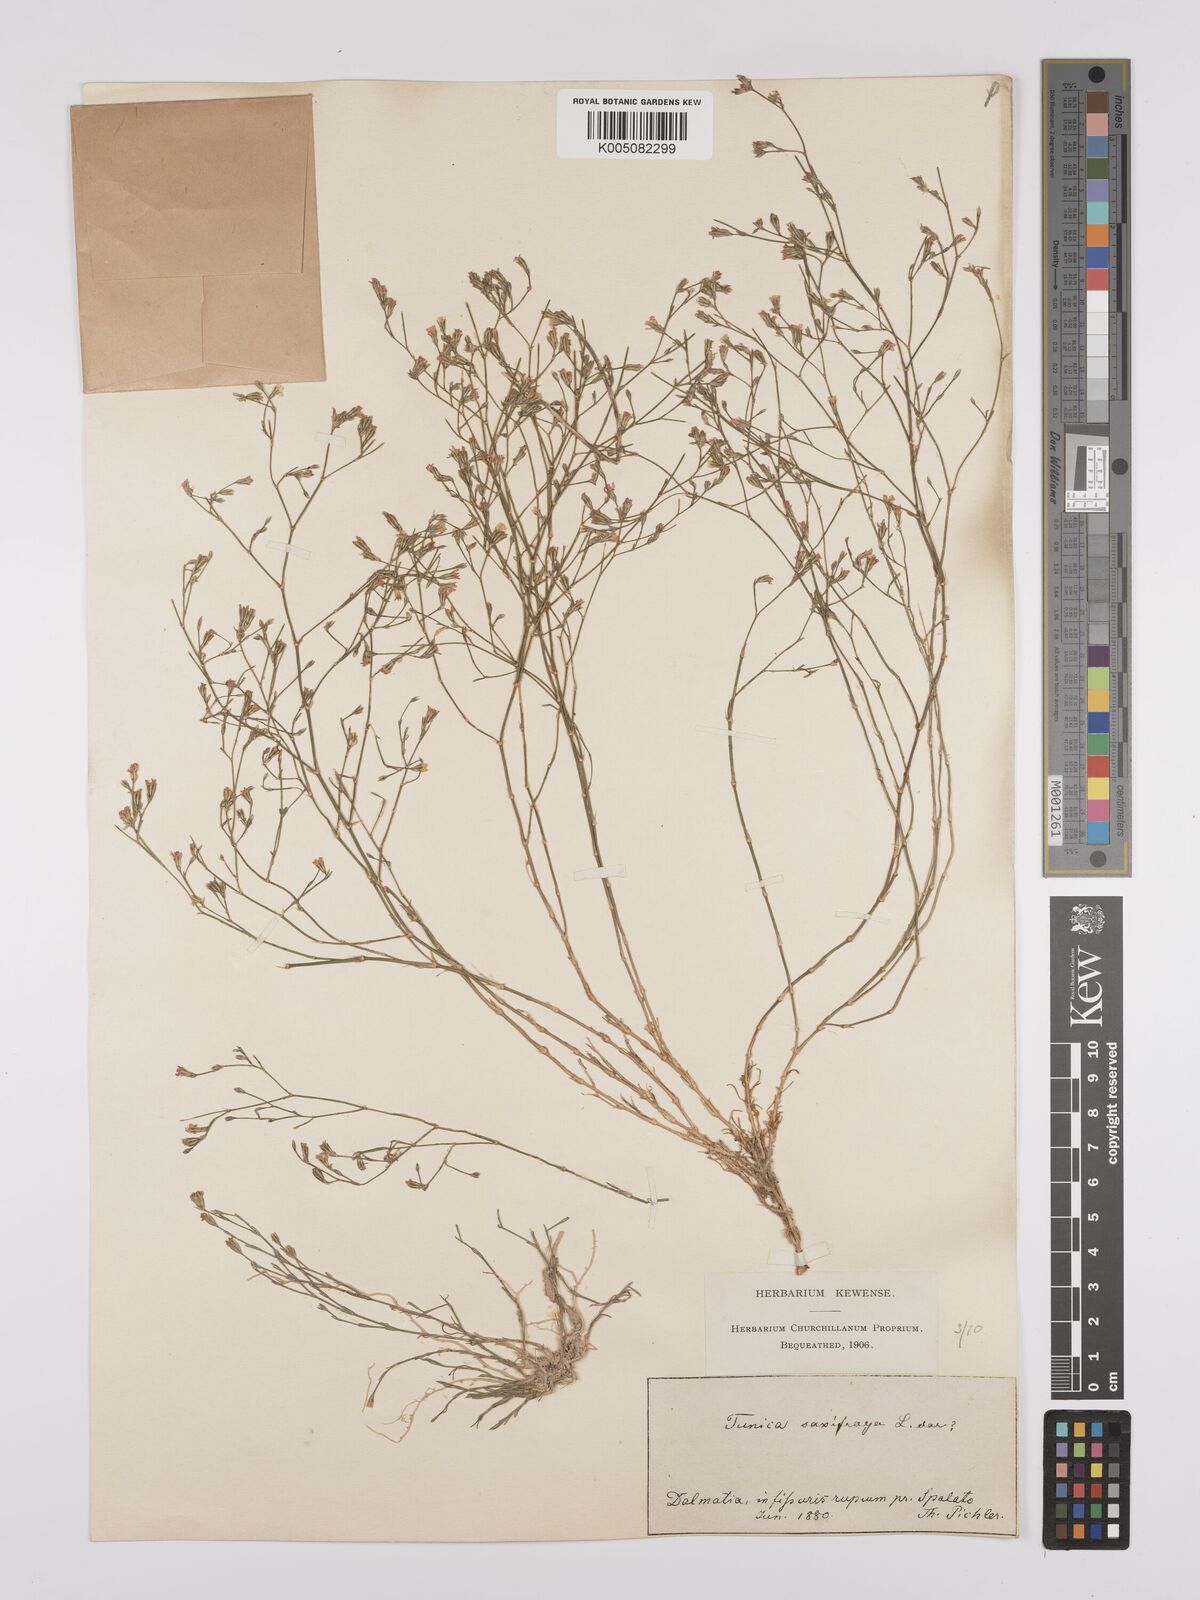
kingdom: Plantae
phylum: Tracheophyta
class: Magnoliopsida
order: Caryophyllales
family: Caryophyllaceae
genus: Petrorhagia
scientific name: Petrorhagia saxifraga
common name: Tunicflower
